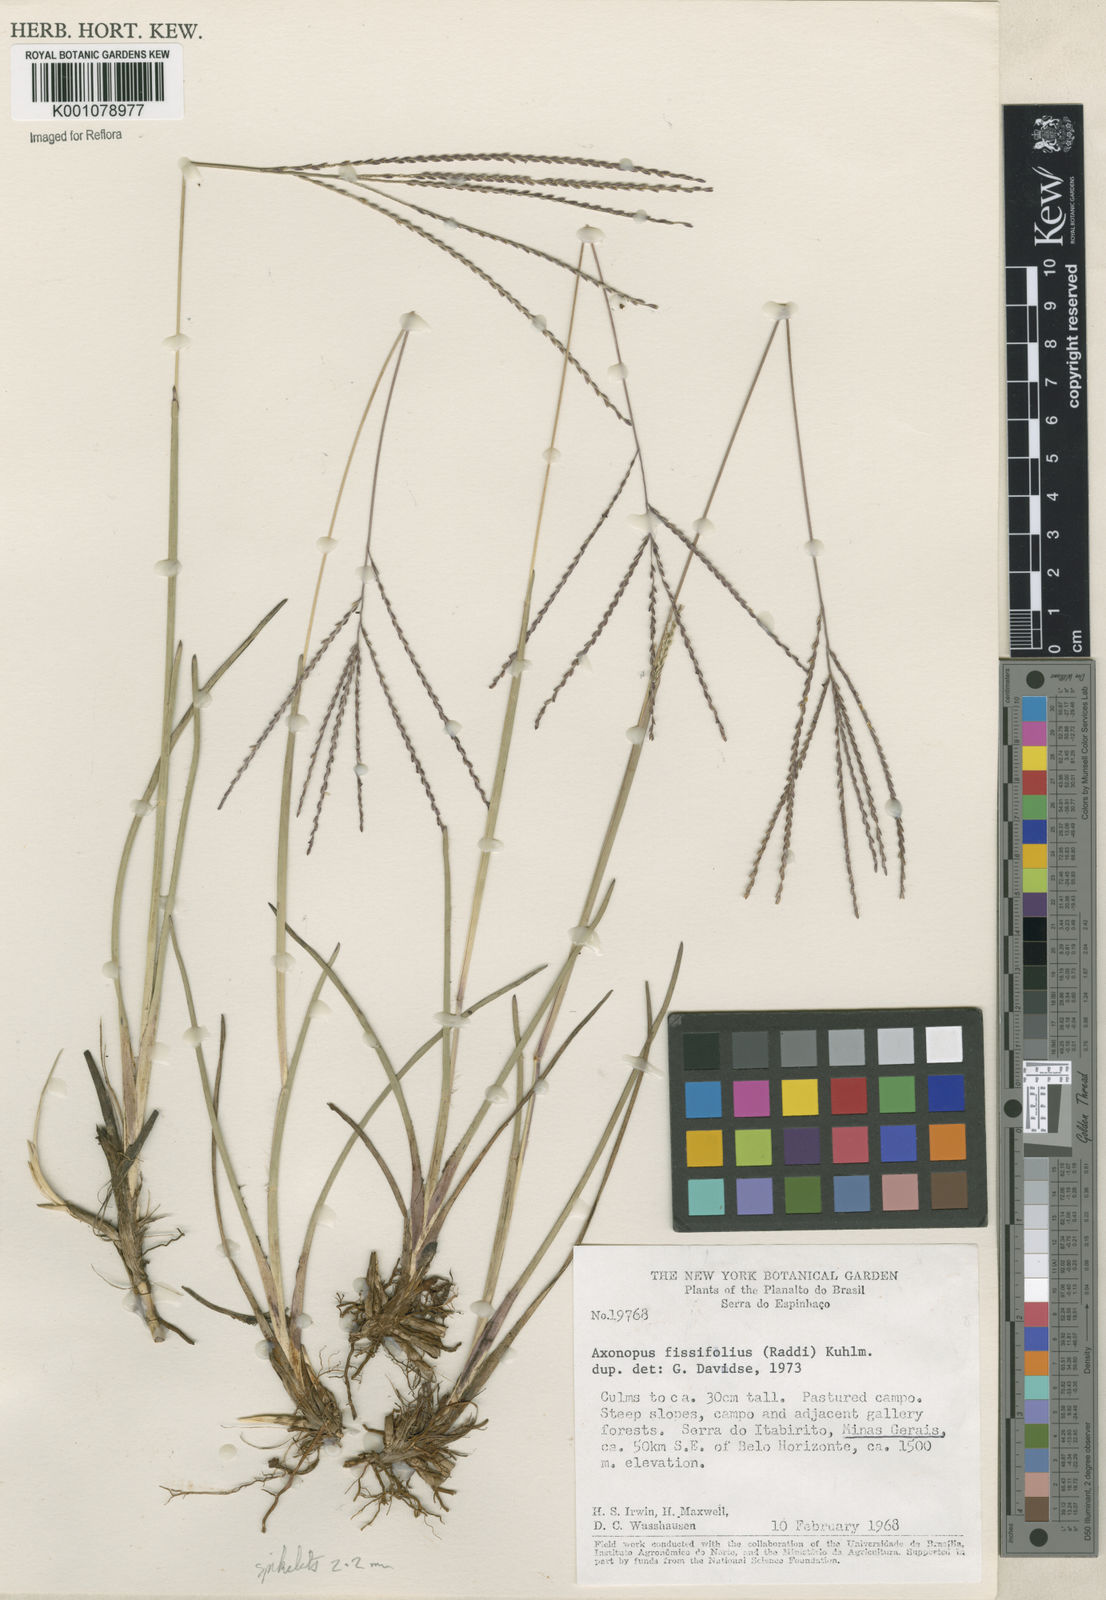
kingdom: Plantae
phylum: Tracheophyta
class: Liliopsida
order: Poales
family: Poaceae
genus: Axonopus
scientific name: Axonopus fissifolius
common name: Common carpetgrass
